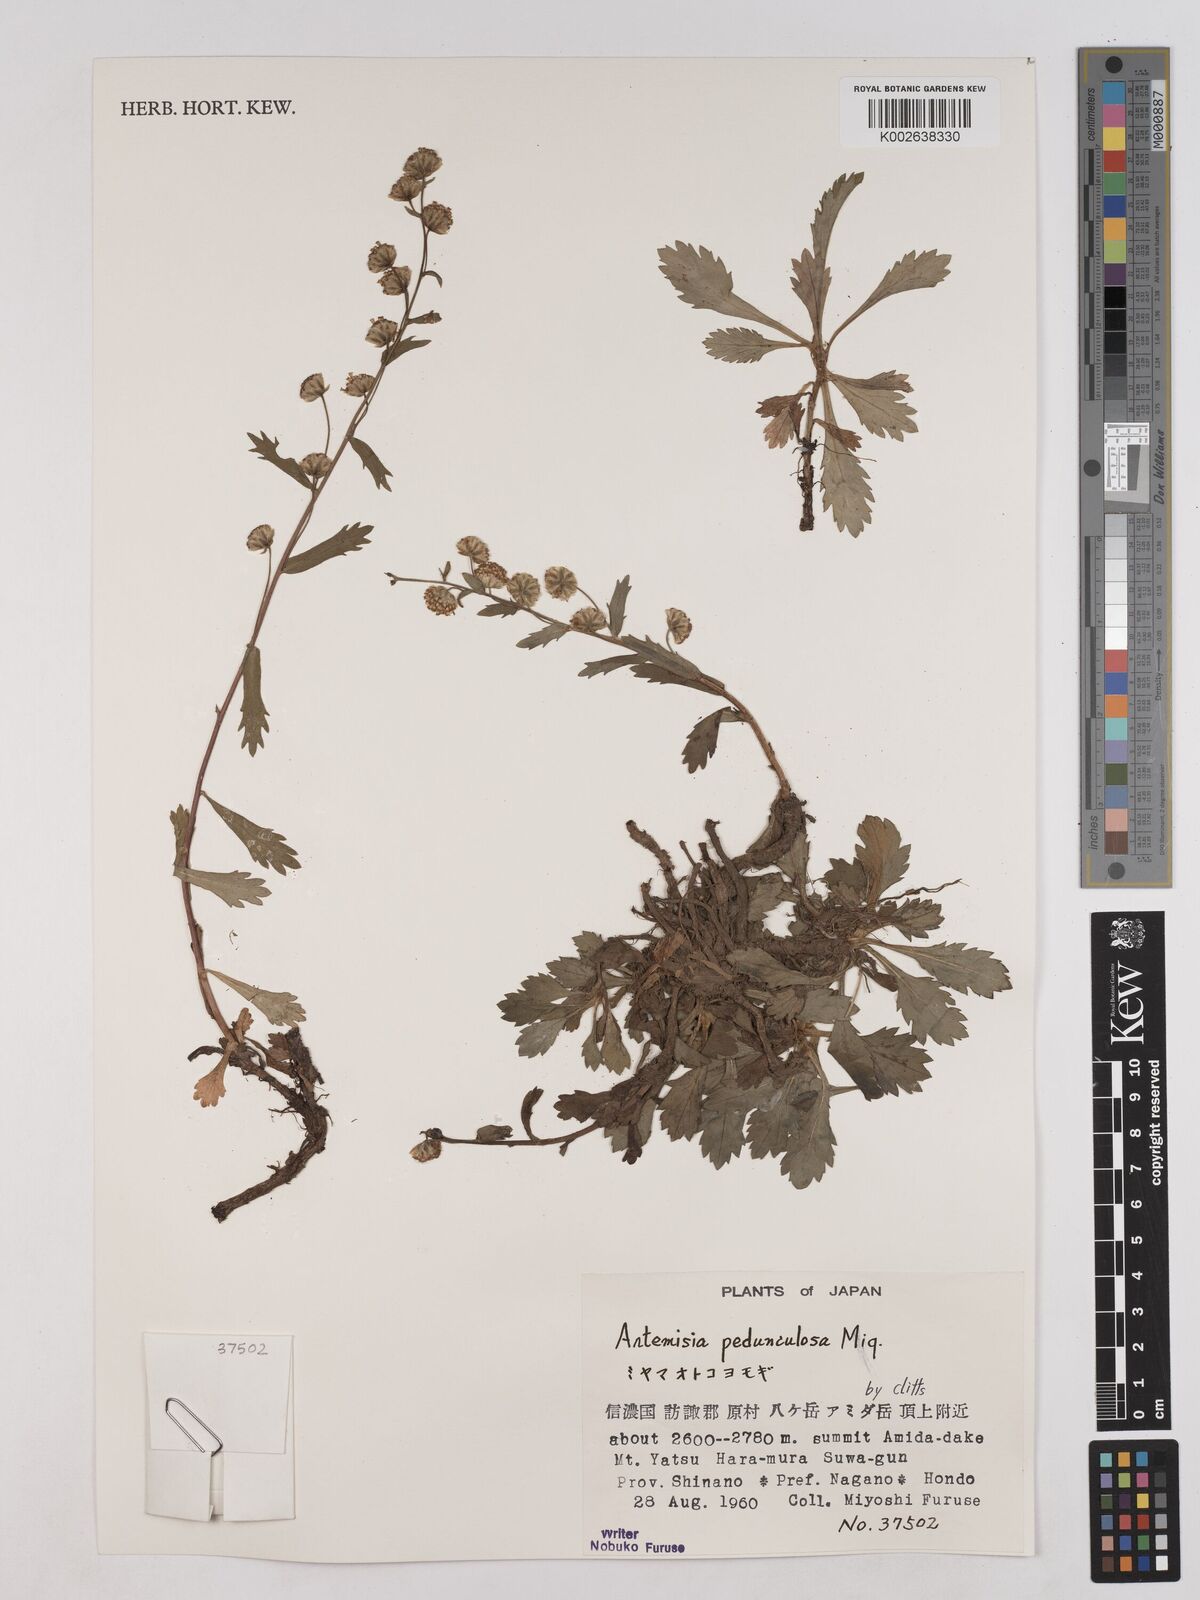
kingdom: Plantae
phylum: Tracheophyta
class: Magnoliopsida
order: Asterales
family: Asteraceae
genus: Artemisia
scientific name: Artemisia pedunculosa
